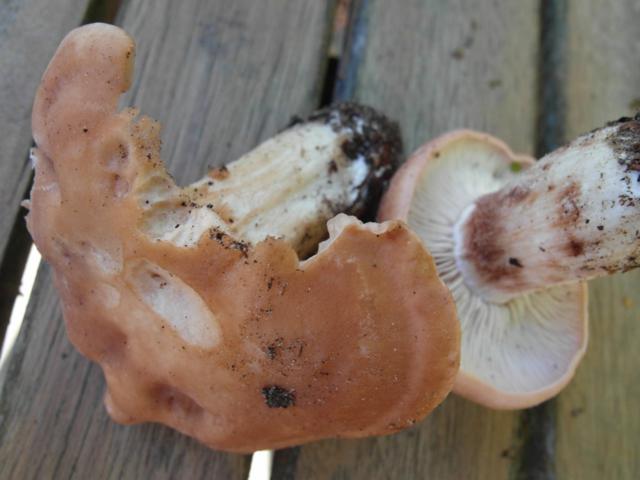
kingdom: Fungi
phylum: Basidiomycota
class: Agaricomycetes
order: Agaricales
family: Entolomataceae
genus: Clitopilus
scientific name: Clitopilus geminus
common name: kødfarvet troldhat
